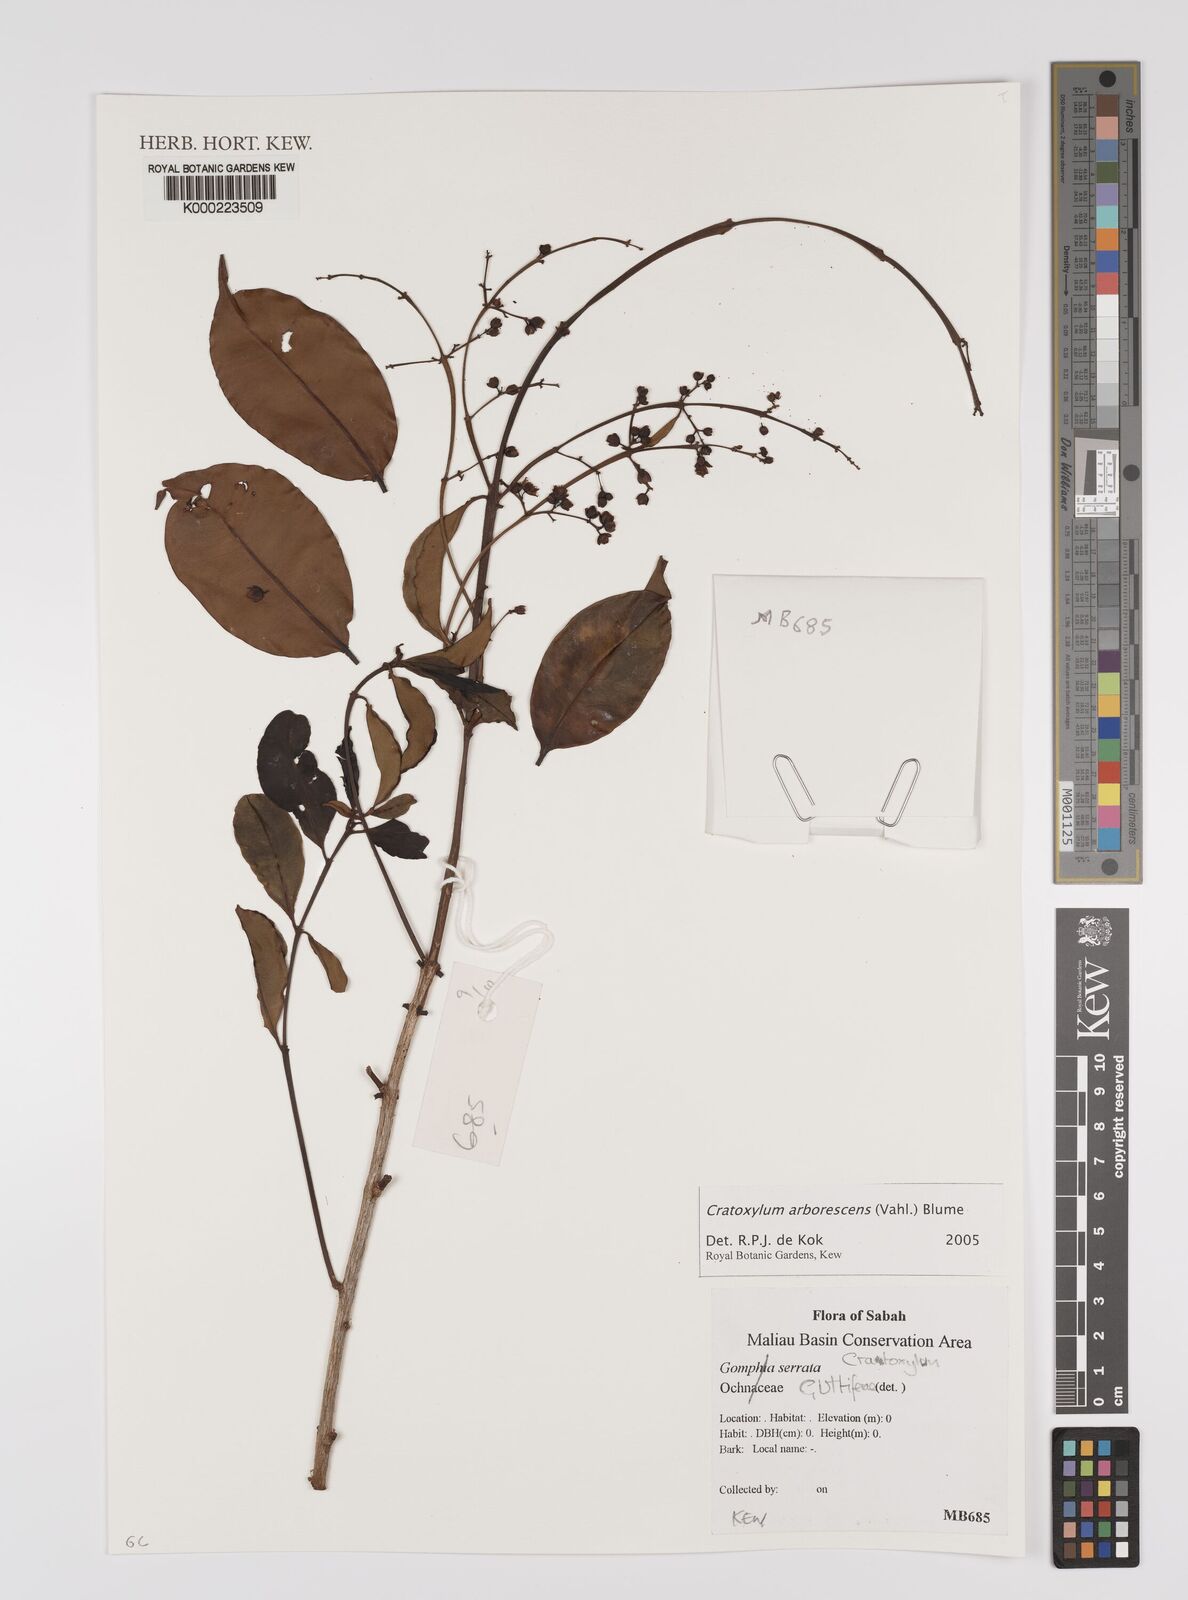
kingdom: Plantae
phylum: Tracheophyta
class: Magnoliopsida
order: Malpighiales
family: Hypericaceae
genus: Cratoxylum
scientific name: Cratoxylum arborescens
